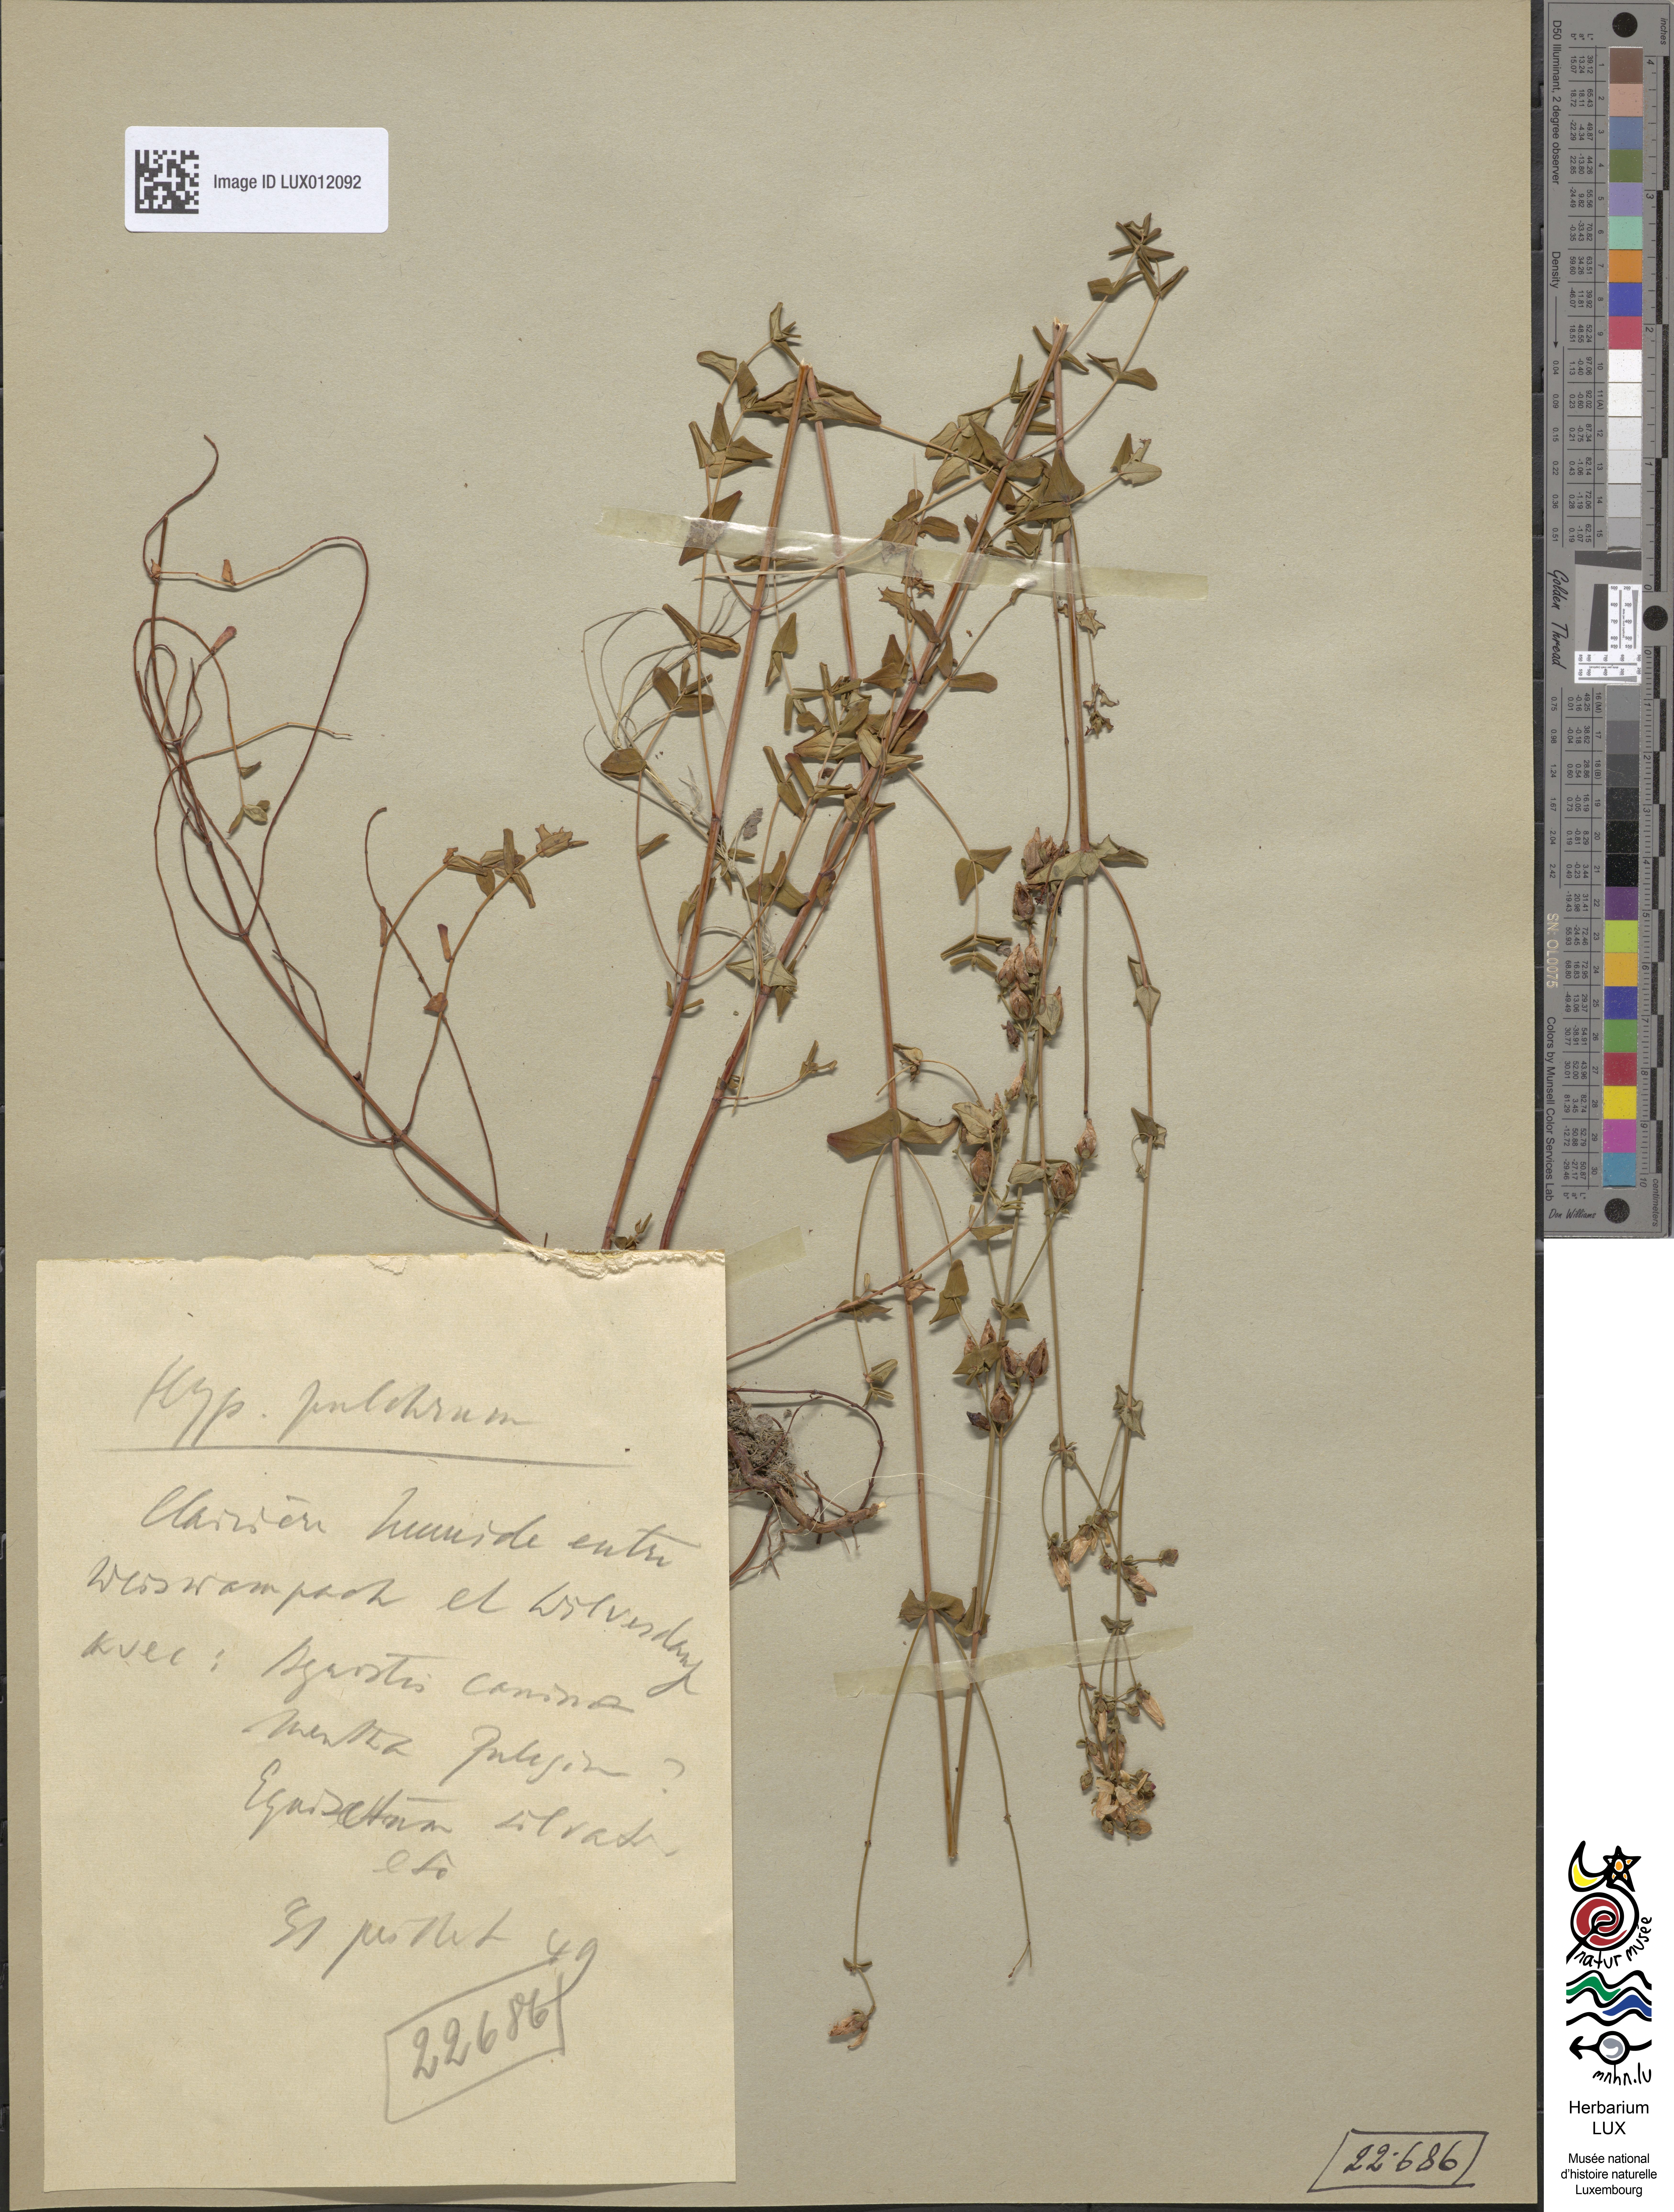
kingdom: Plantae
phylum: Tracheophyta
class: Magnoliopsida
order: Malpighiales
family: Hypericaceae
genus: Hypericum
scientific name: Hypericum pulchrum
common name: Slender st. john's-wort
